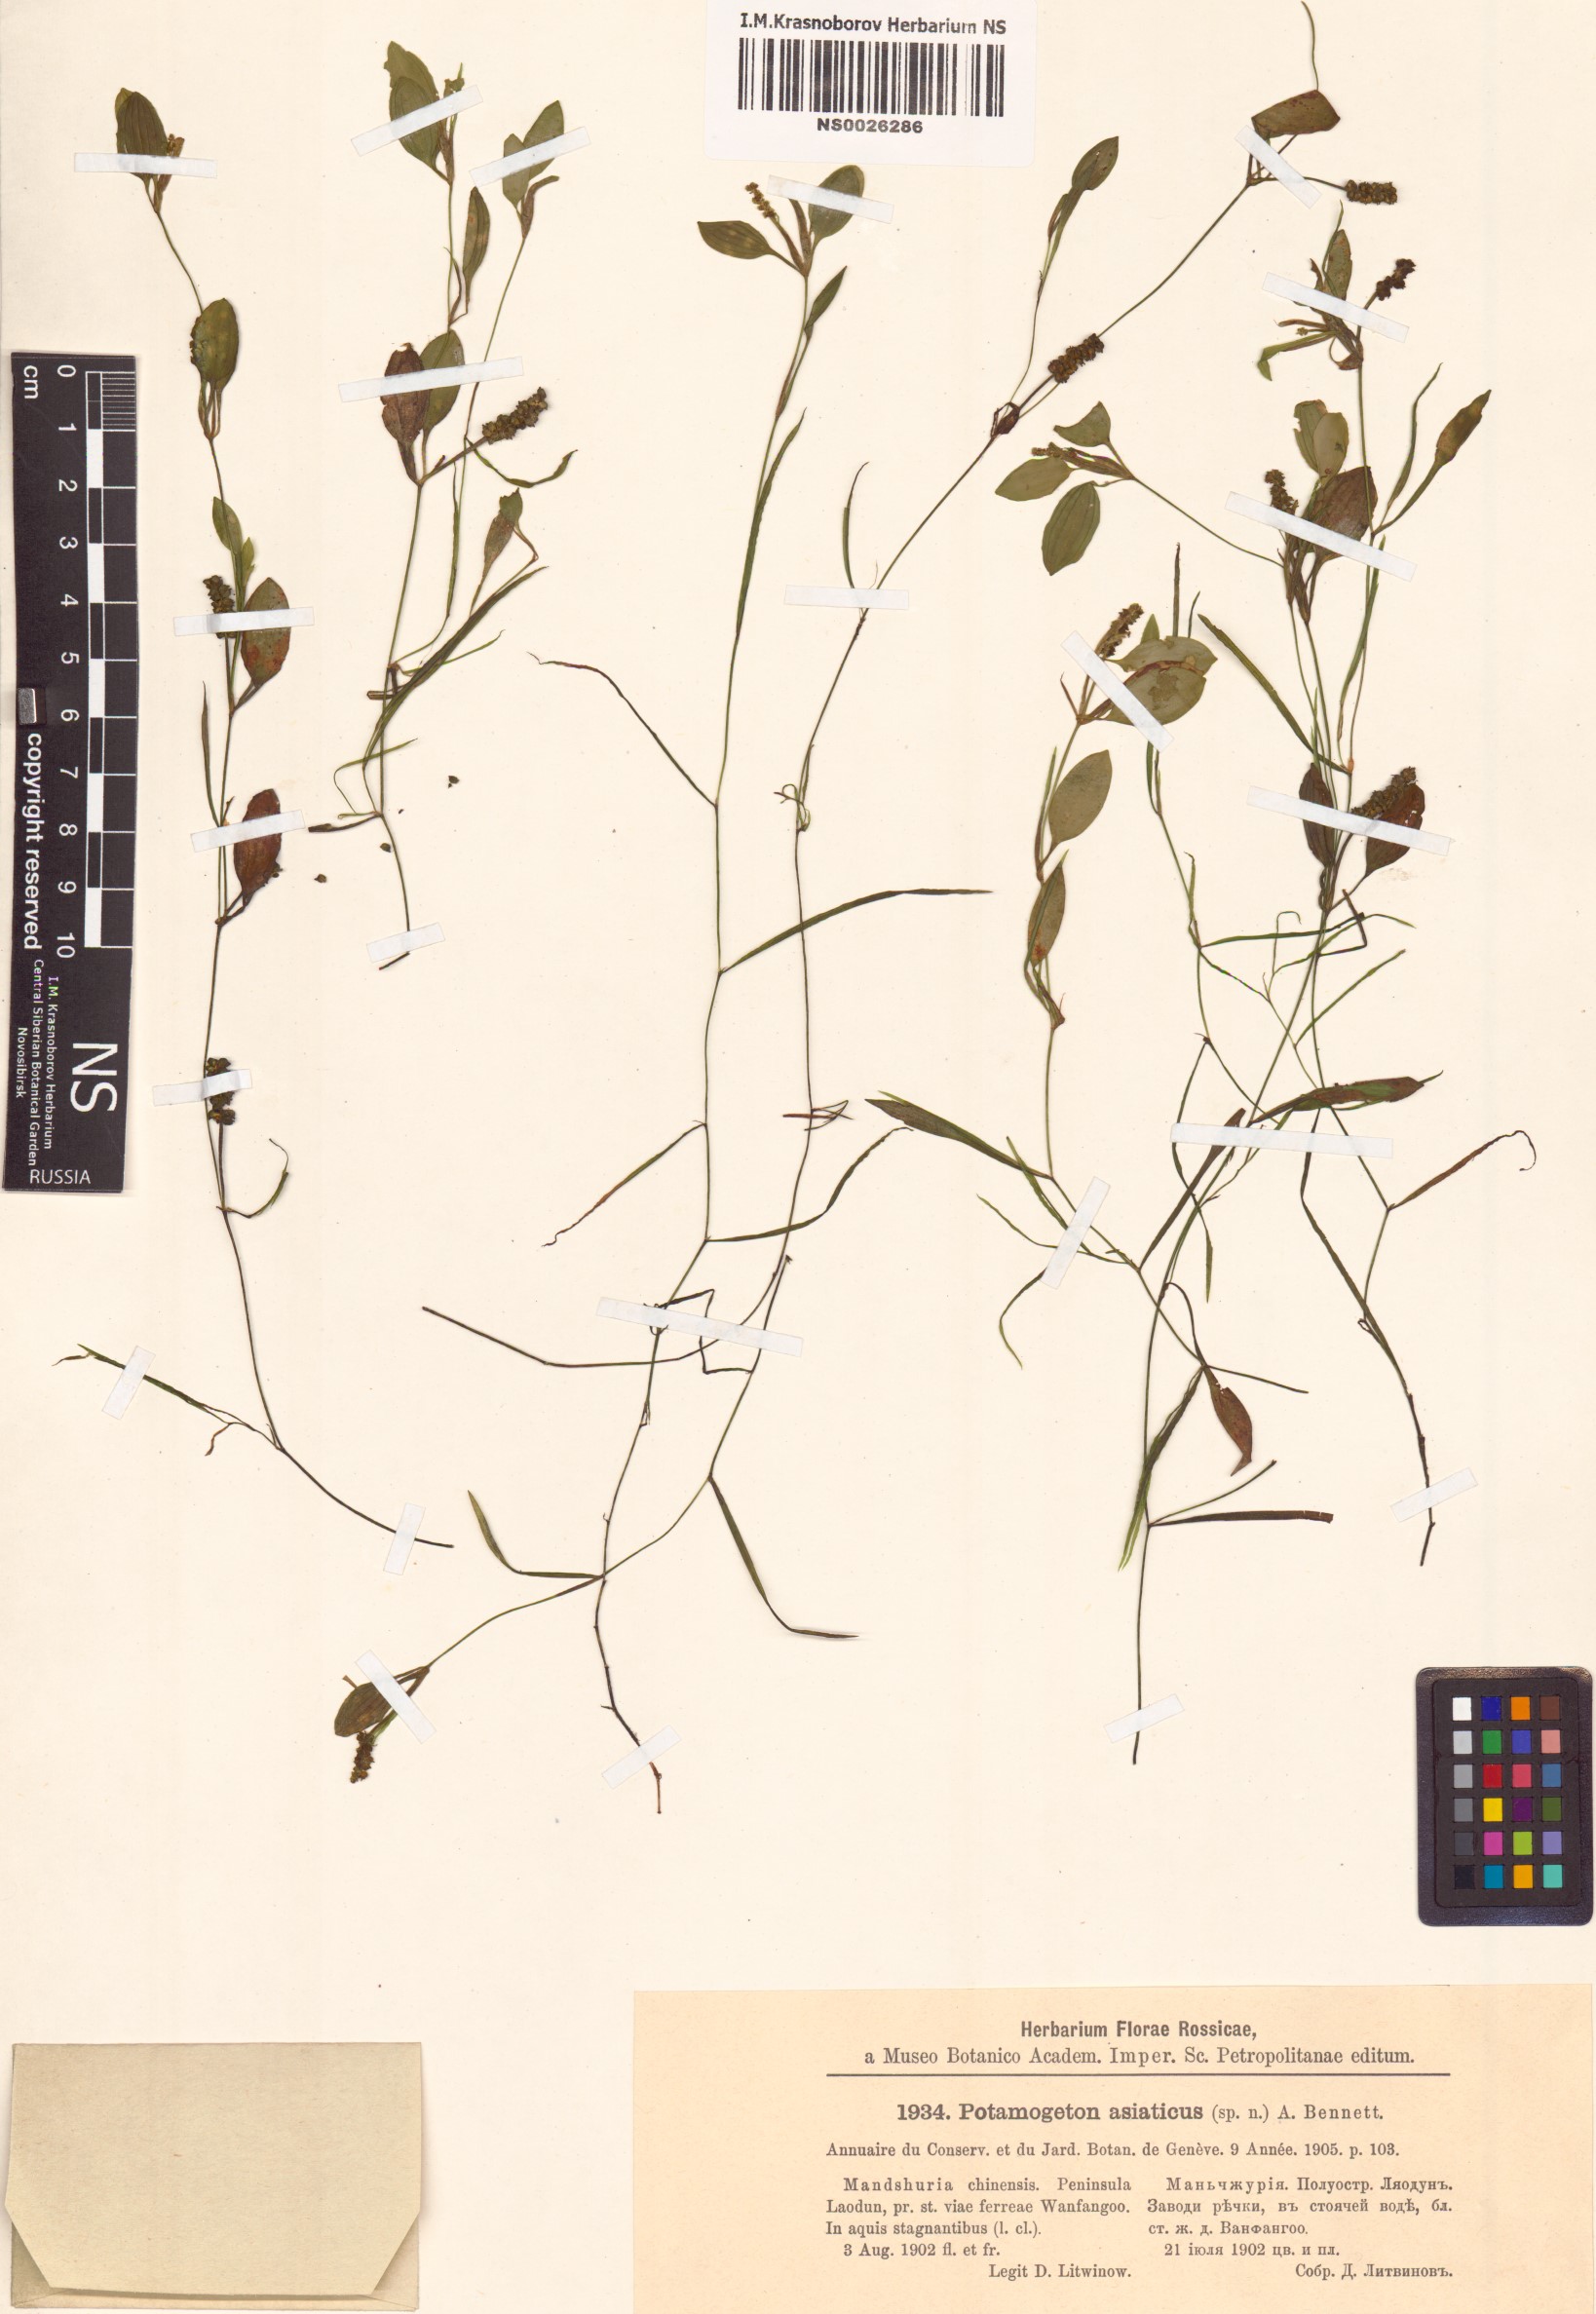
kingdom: Plantae
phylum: Tracheophyta
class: Liliopsida
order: Alismatales
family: Potamogetonaceae
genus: Potamogeton
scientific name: Potamogeton octandrus
